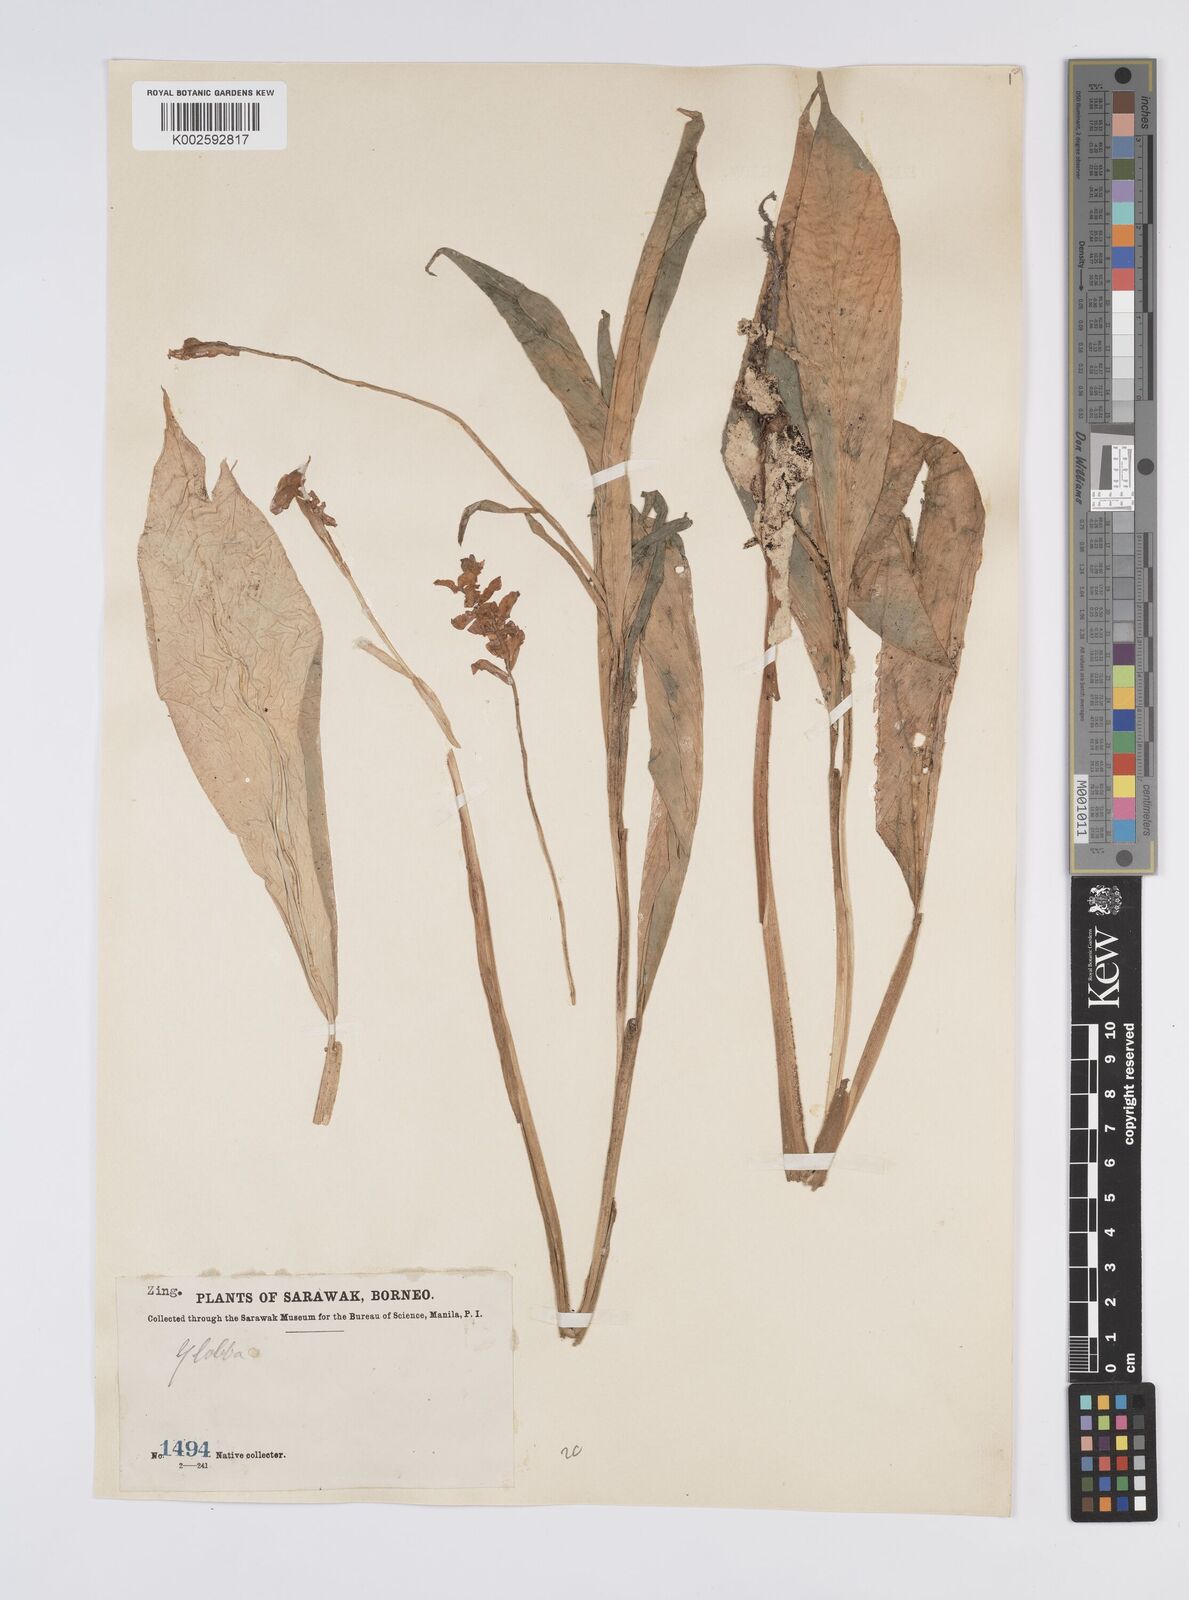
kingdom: Plantae
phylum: Tracheophyta
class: Liliopsida
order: Zingiberales
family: Zingiberaceae
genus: Globba
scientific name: Globba atrosanguinea
